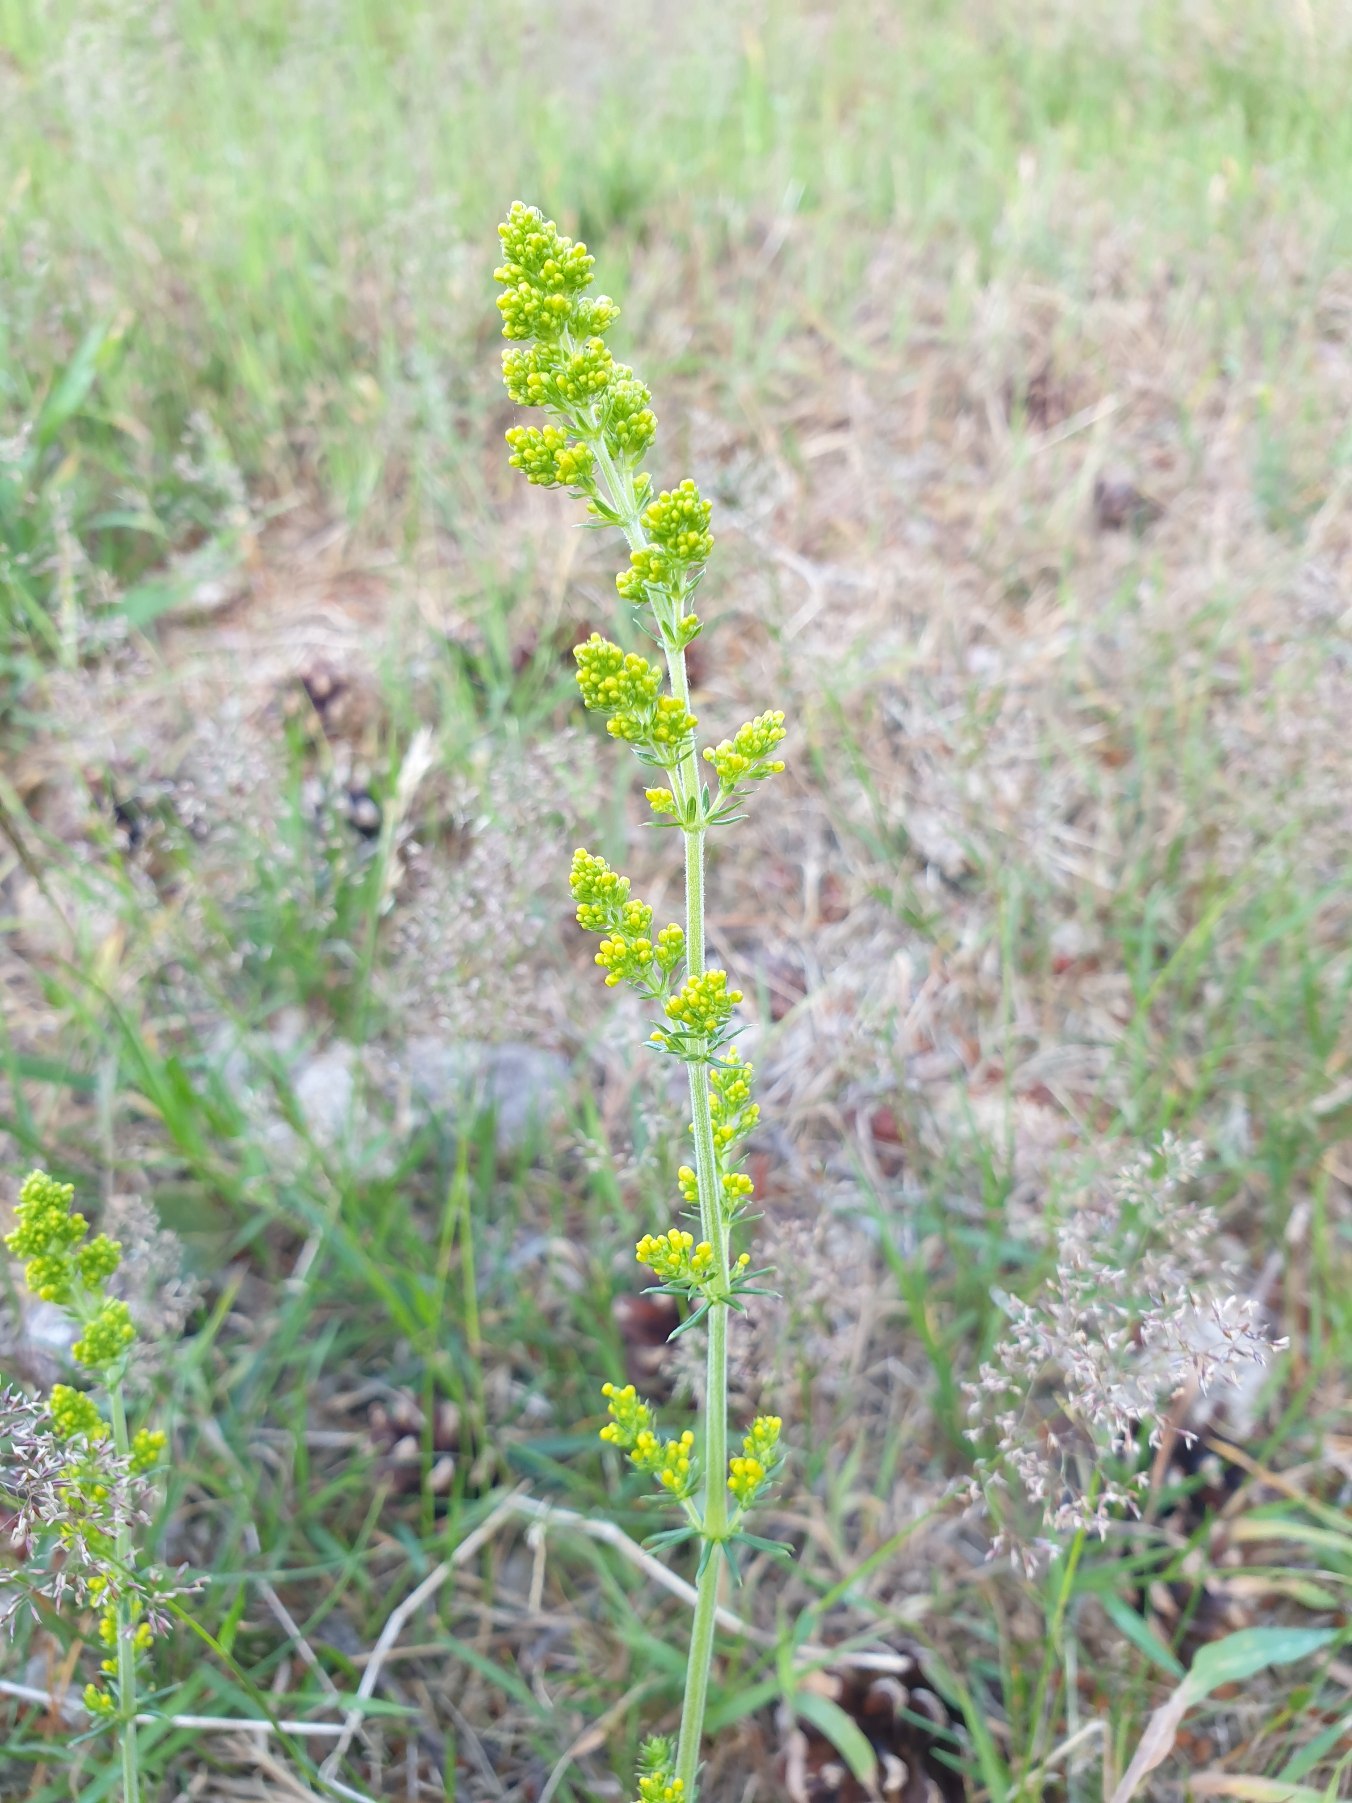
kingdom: Plantae
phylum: Tracheophyta
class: Magnoliopsida
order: Gentianales
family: Rubiaceae
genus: Galium
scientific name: Galium verum
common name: Gul snerre
